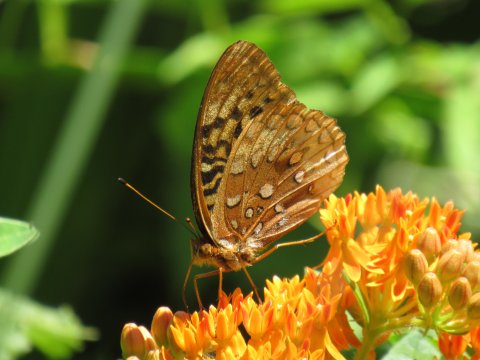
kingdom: Animalia
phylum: Arthropoda
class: Insecta
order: Lepidoptera
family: Nymphalidae
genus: Speyeria
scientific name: Speyeria cybele
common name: Great Spangled Fritillary
